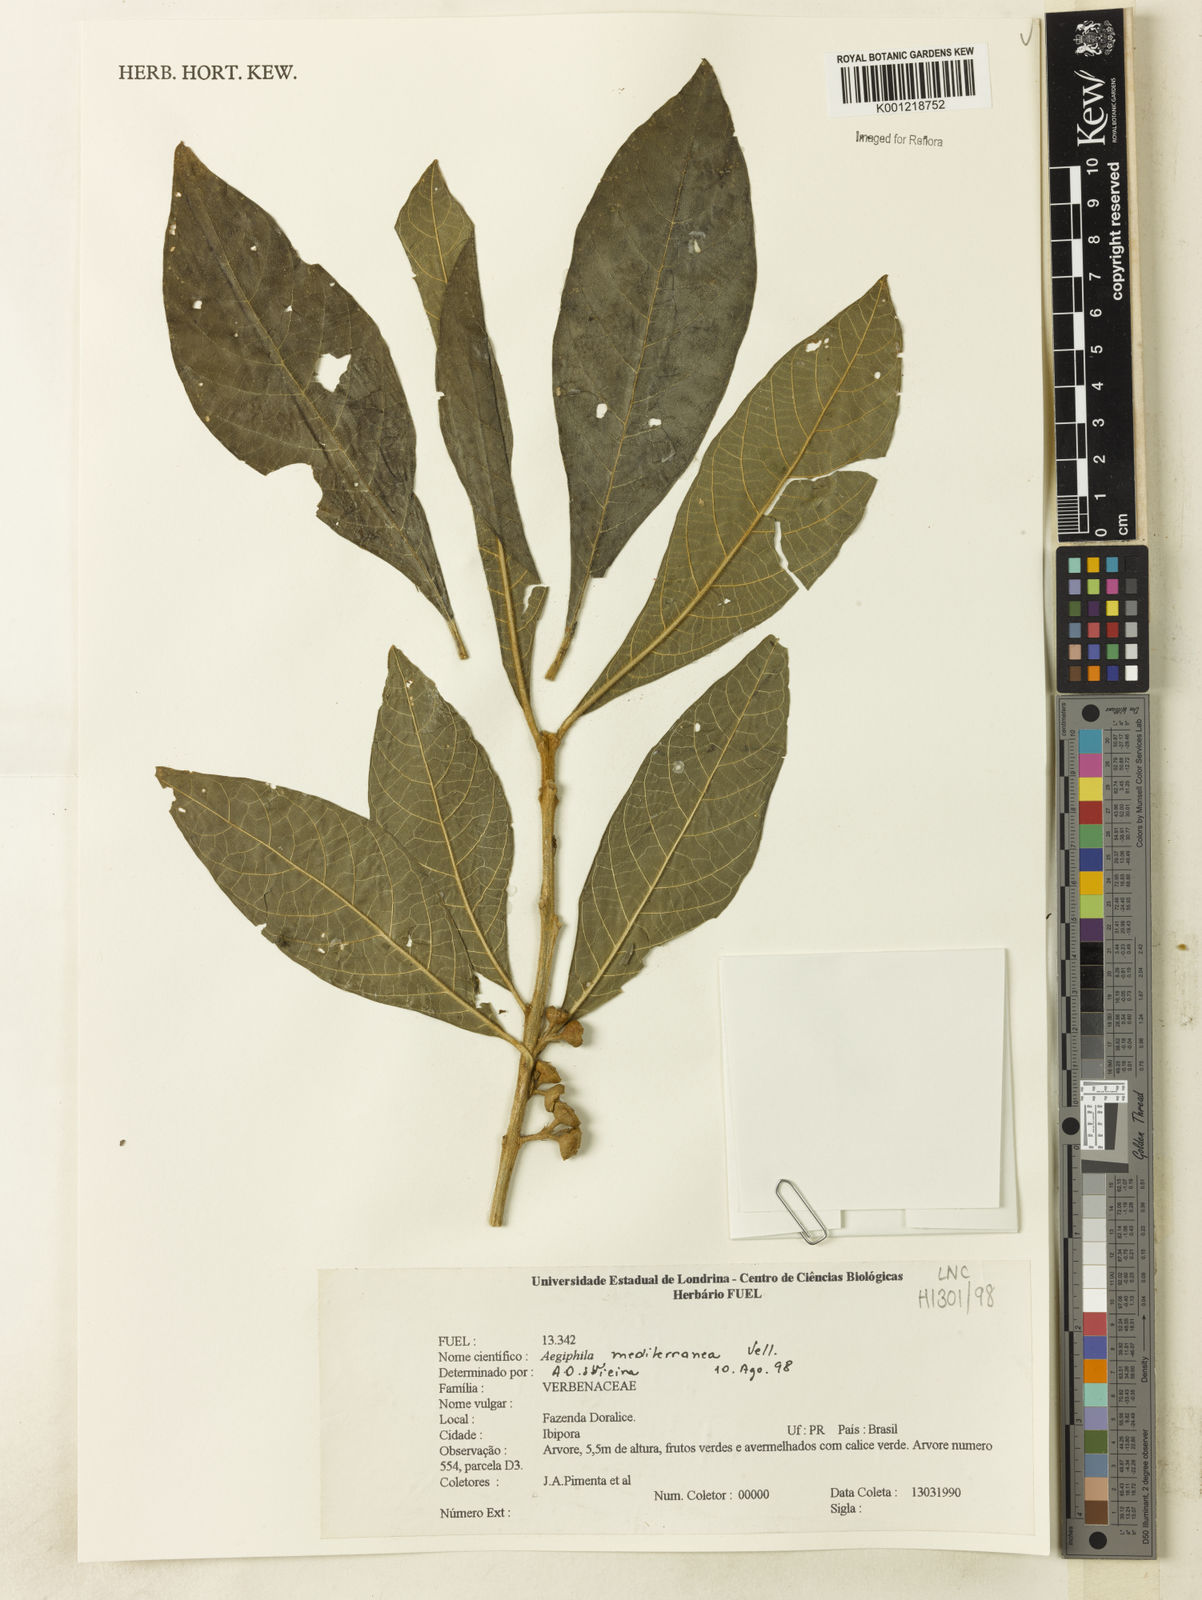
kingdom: Plantae
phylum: Tracheophyta
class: Magnoliopsida
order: Lamiales
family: Lamiaceae
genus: Aegiphila
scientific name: Aegiphila mediterranea
